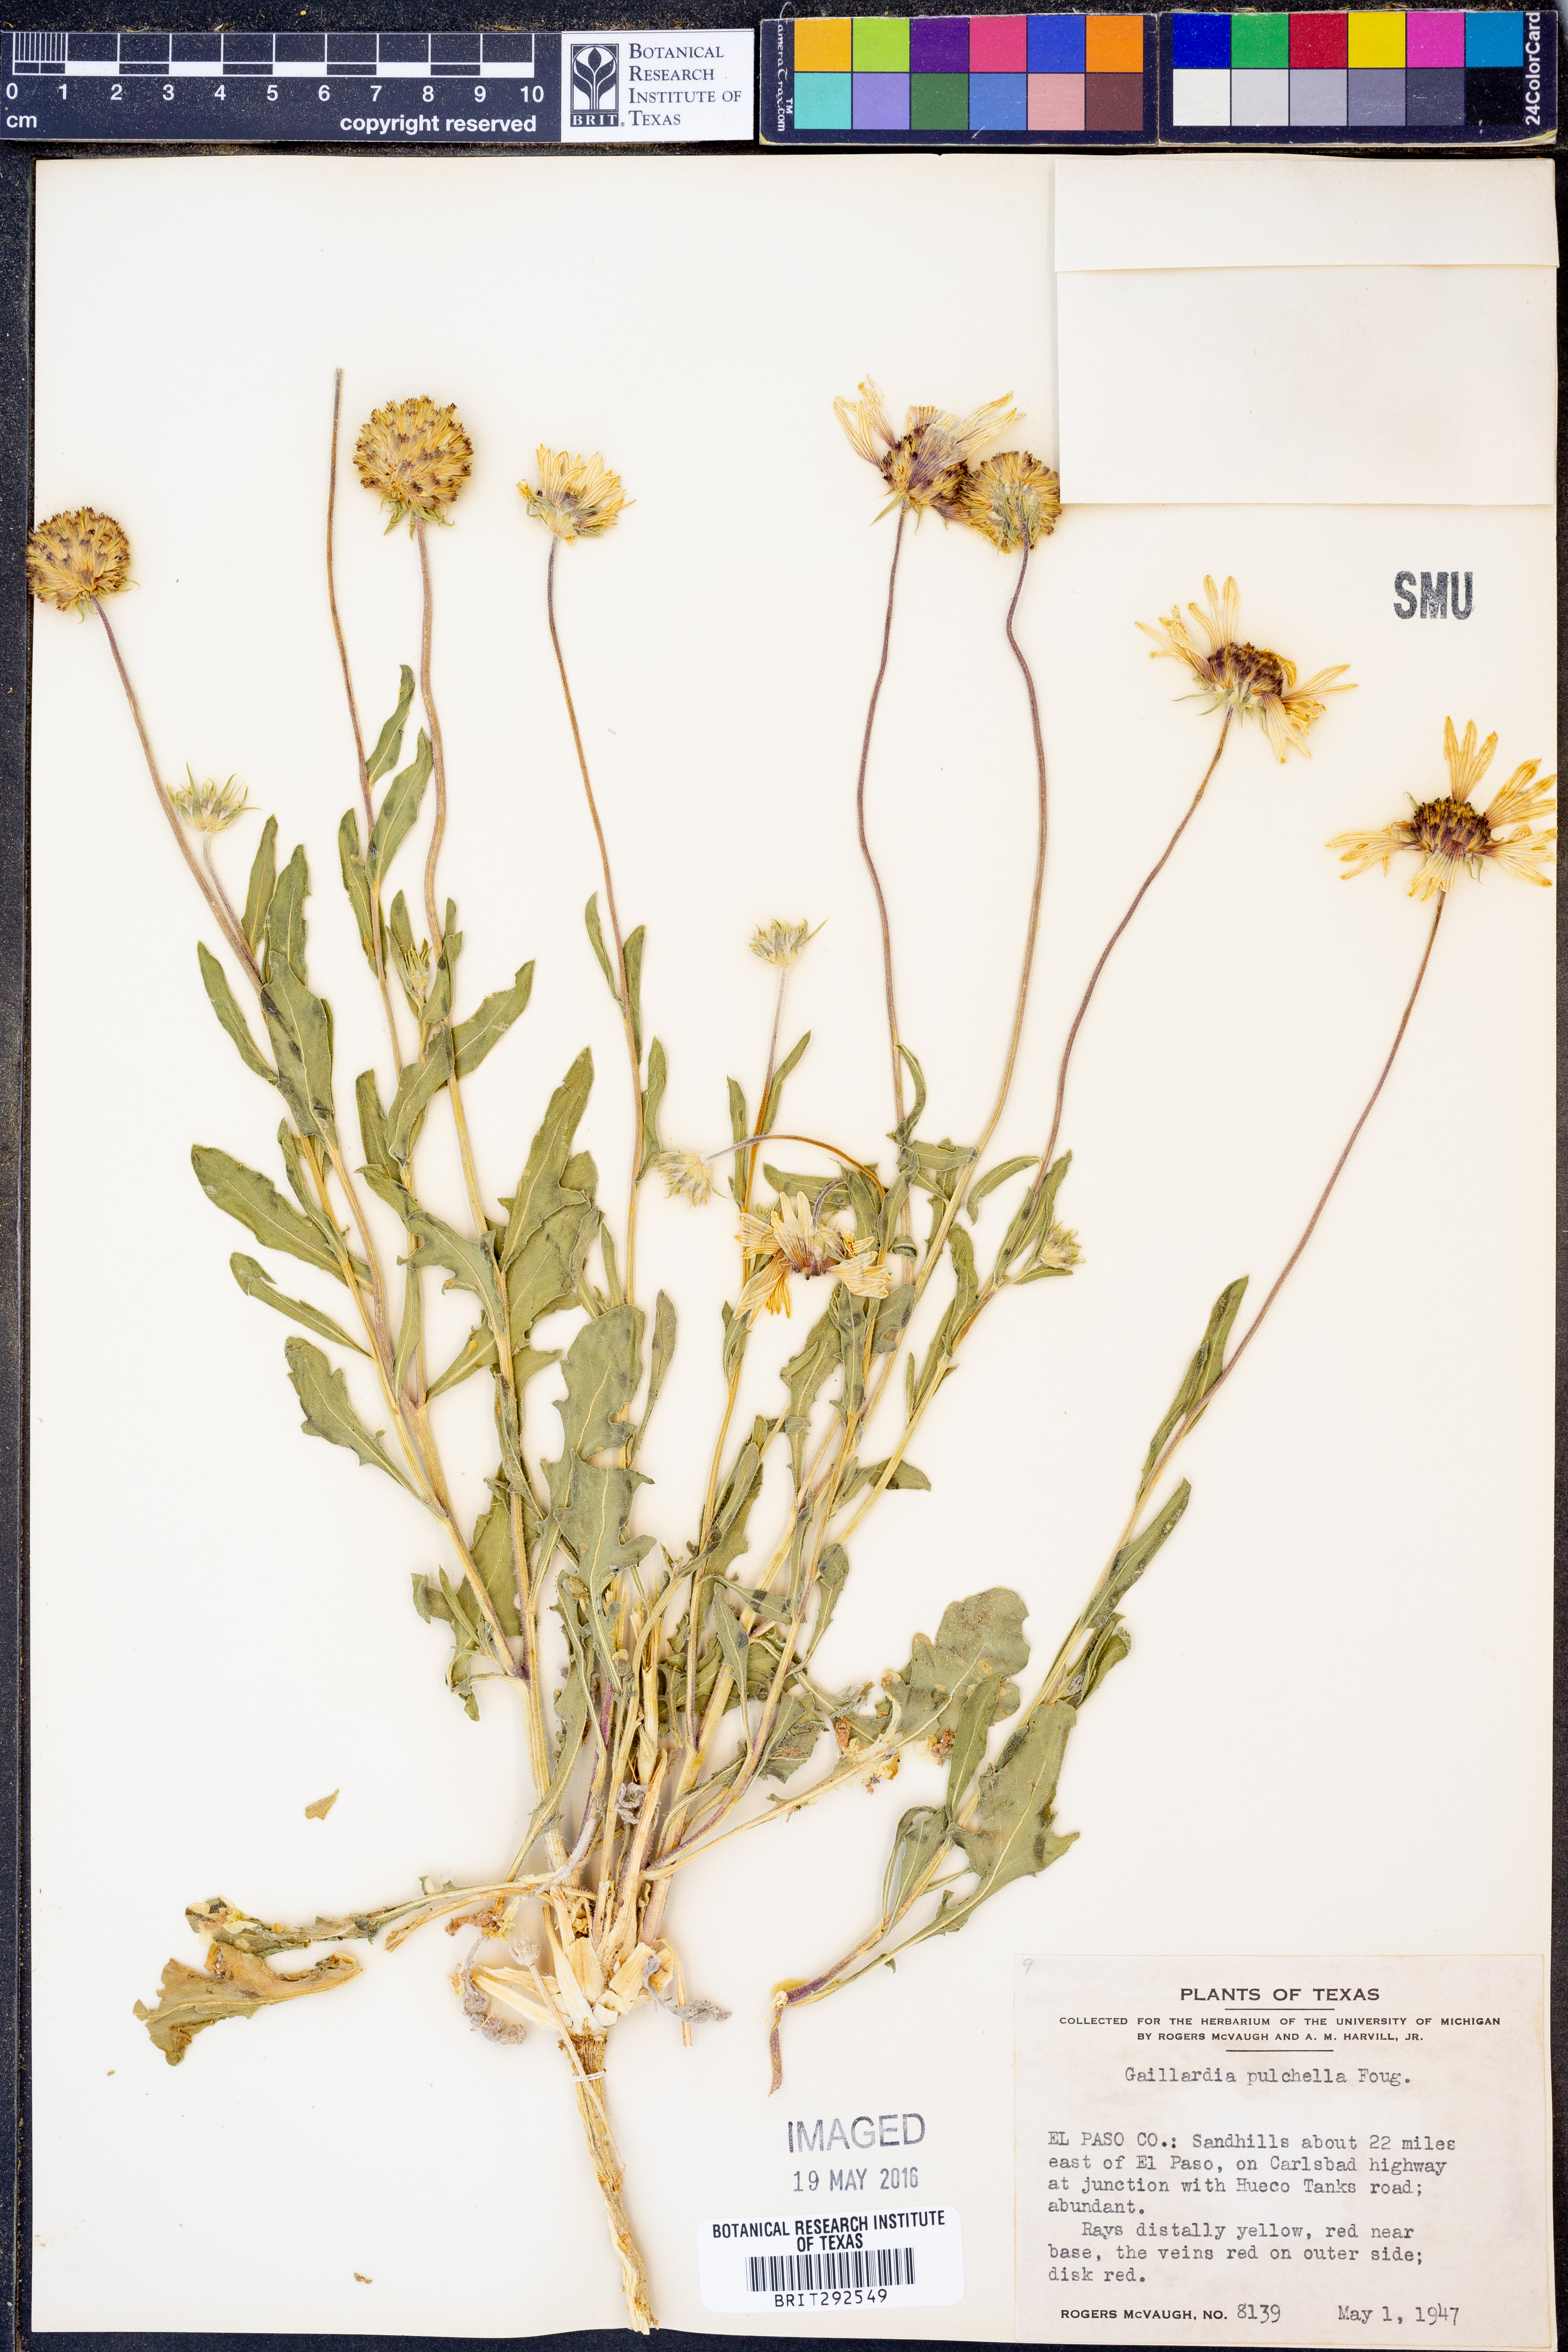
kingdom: Plantae
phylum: Tracheophyta
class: Magnoliopsida
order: Asterales
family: Asteraceae
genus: Gaillardia
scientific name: Gaillardia pulchella
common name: Firewheel
